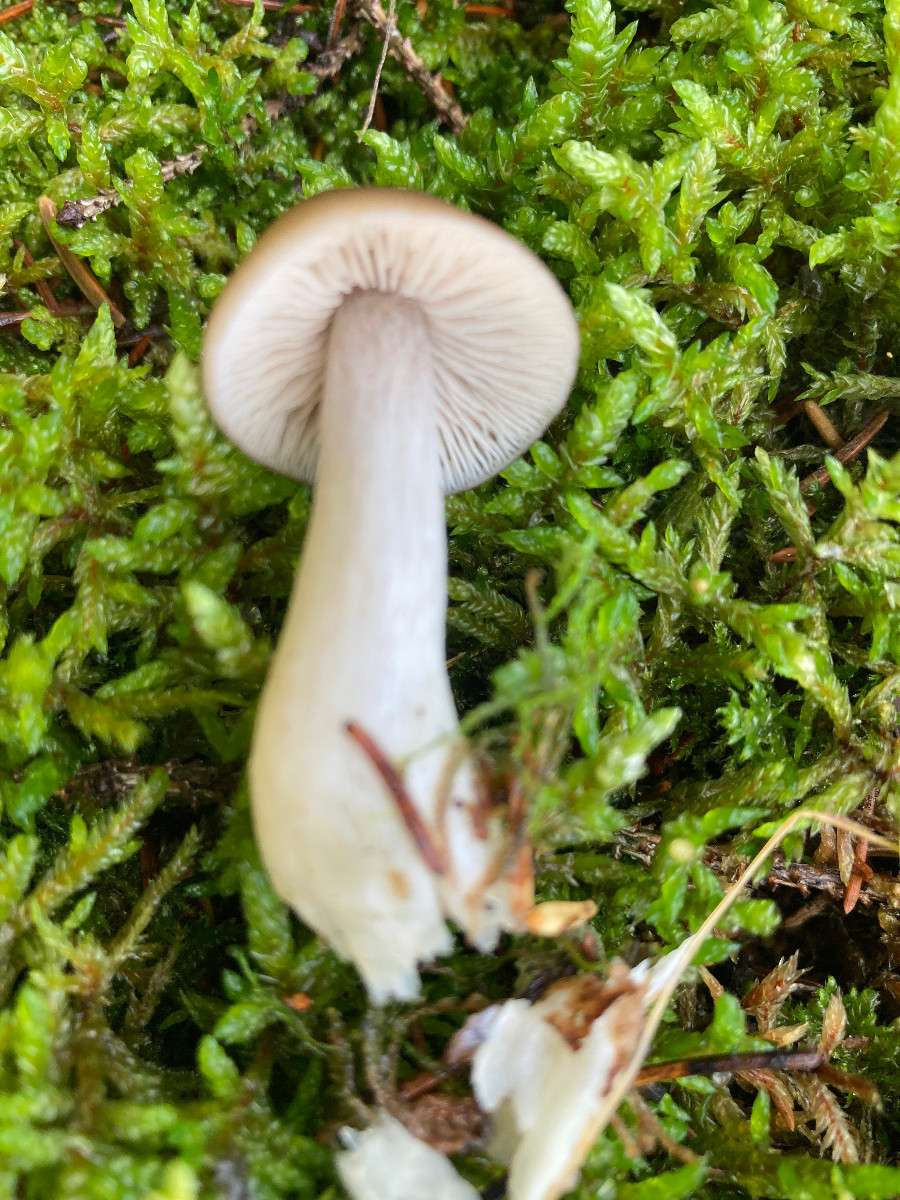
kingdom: Fungi
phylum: Basidiomycota
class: Agaricomycetes
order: Agaricales
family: Entolomataceae
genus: Entocybe
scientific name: Entocybe turbida
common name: plantage-rødblad
